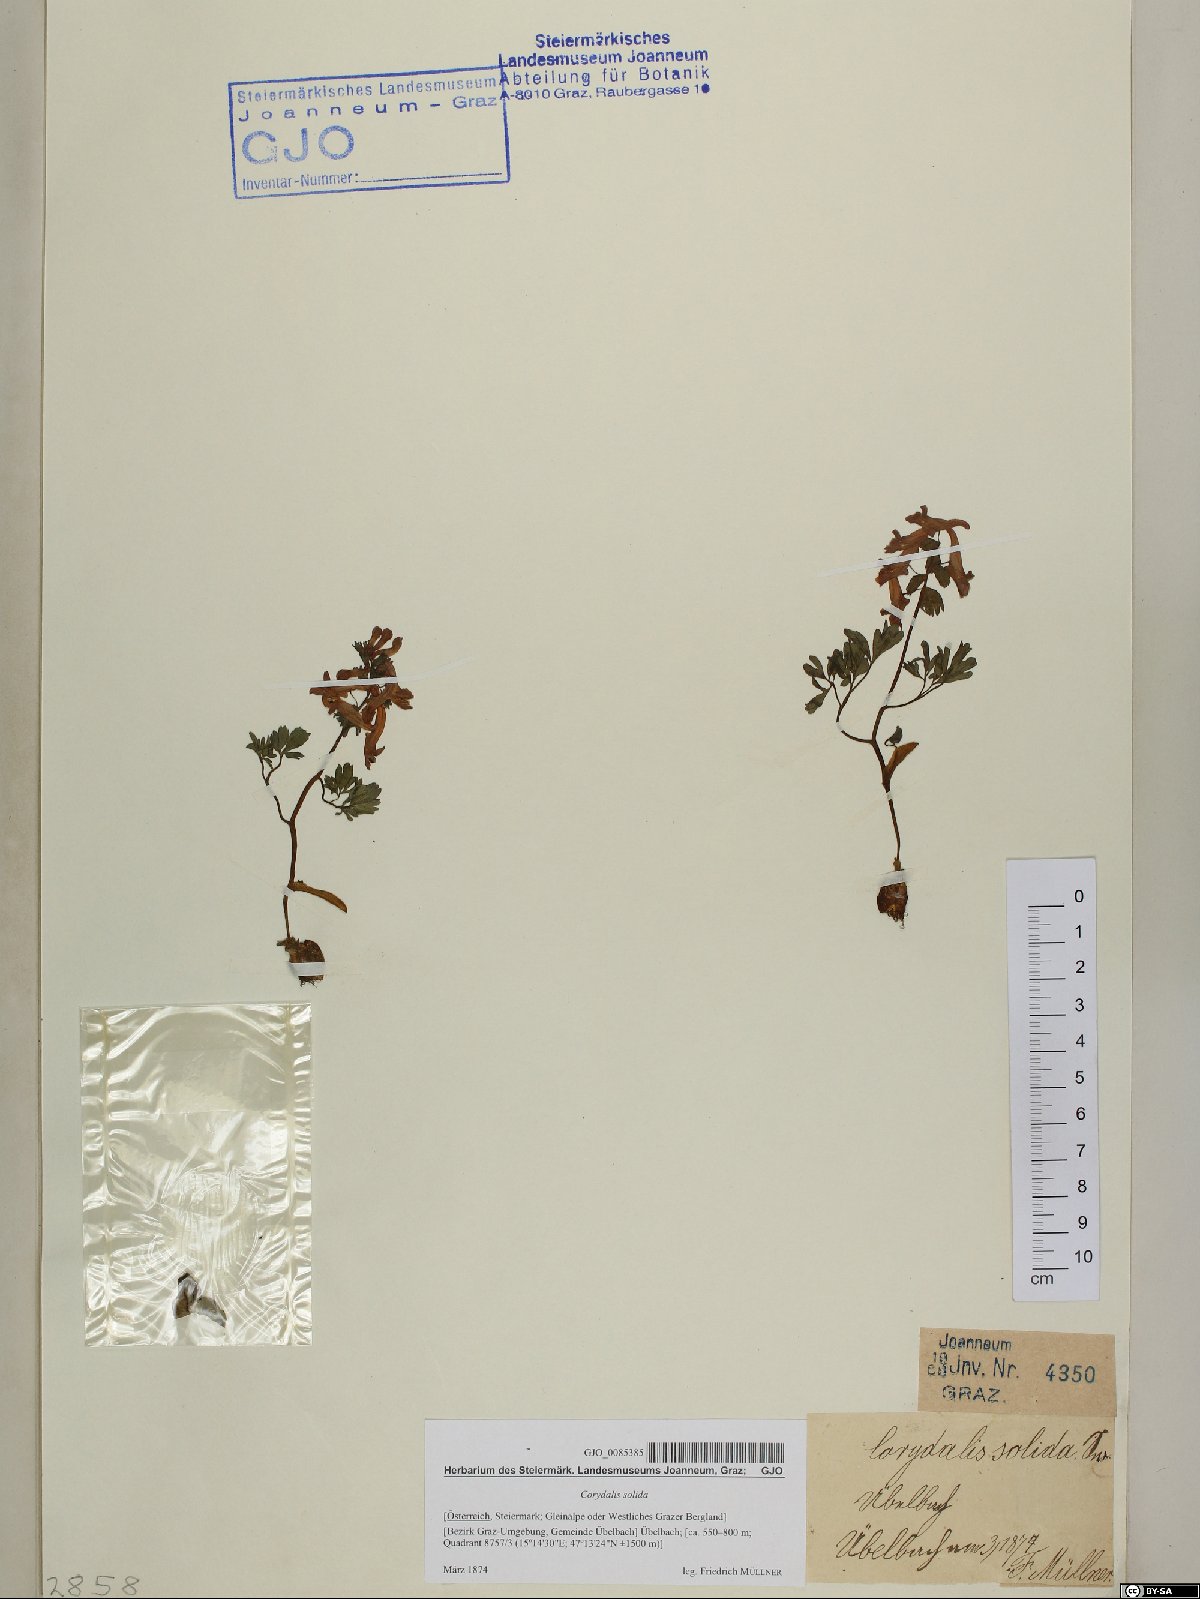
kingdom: Plantae
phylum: Tracheophyta
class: Magnoliopsida
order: Ranunculales
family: Papaveraceae
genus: Corydalis
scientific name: Corydalis solida
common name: Bird-in-a-bush
